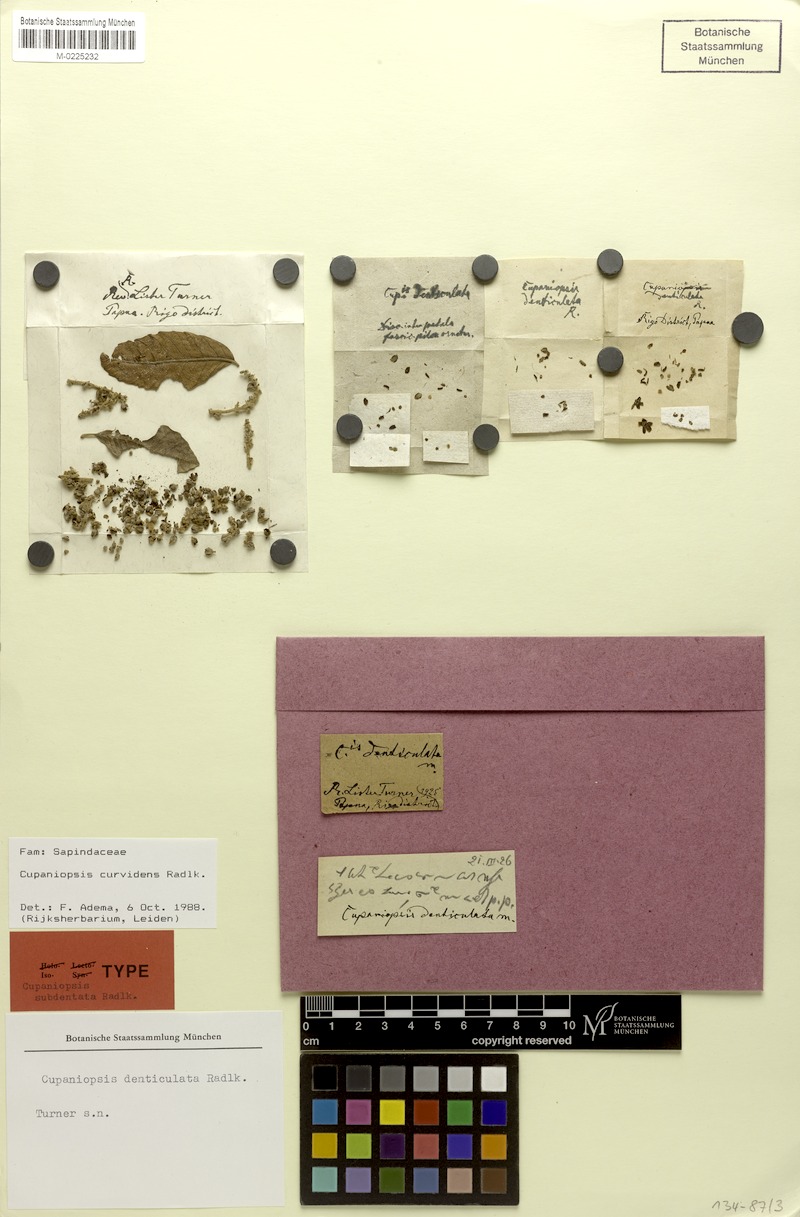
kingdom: Plantae
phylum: Tracheophyta
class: Magnoliopsida
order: Sapindales
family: Sapindaceae
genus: Cupaniopsis
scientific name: Cupaniopsis curvidens
